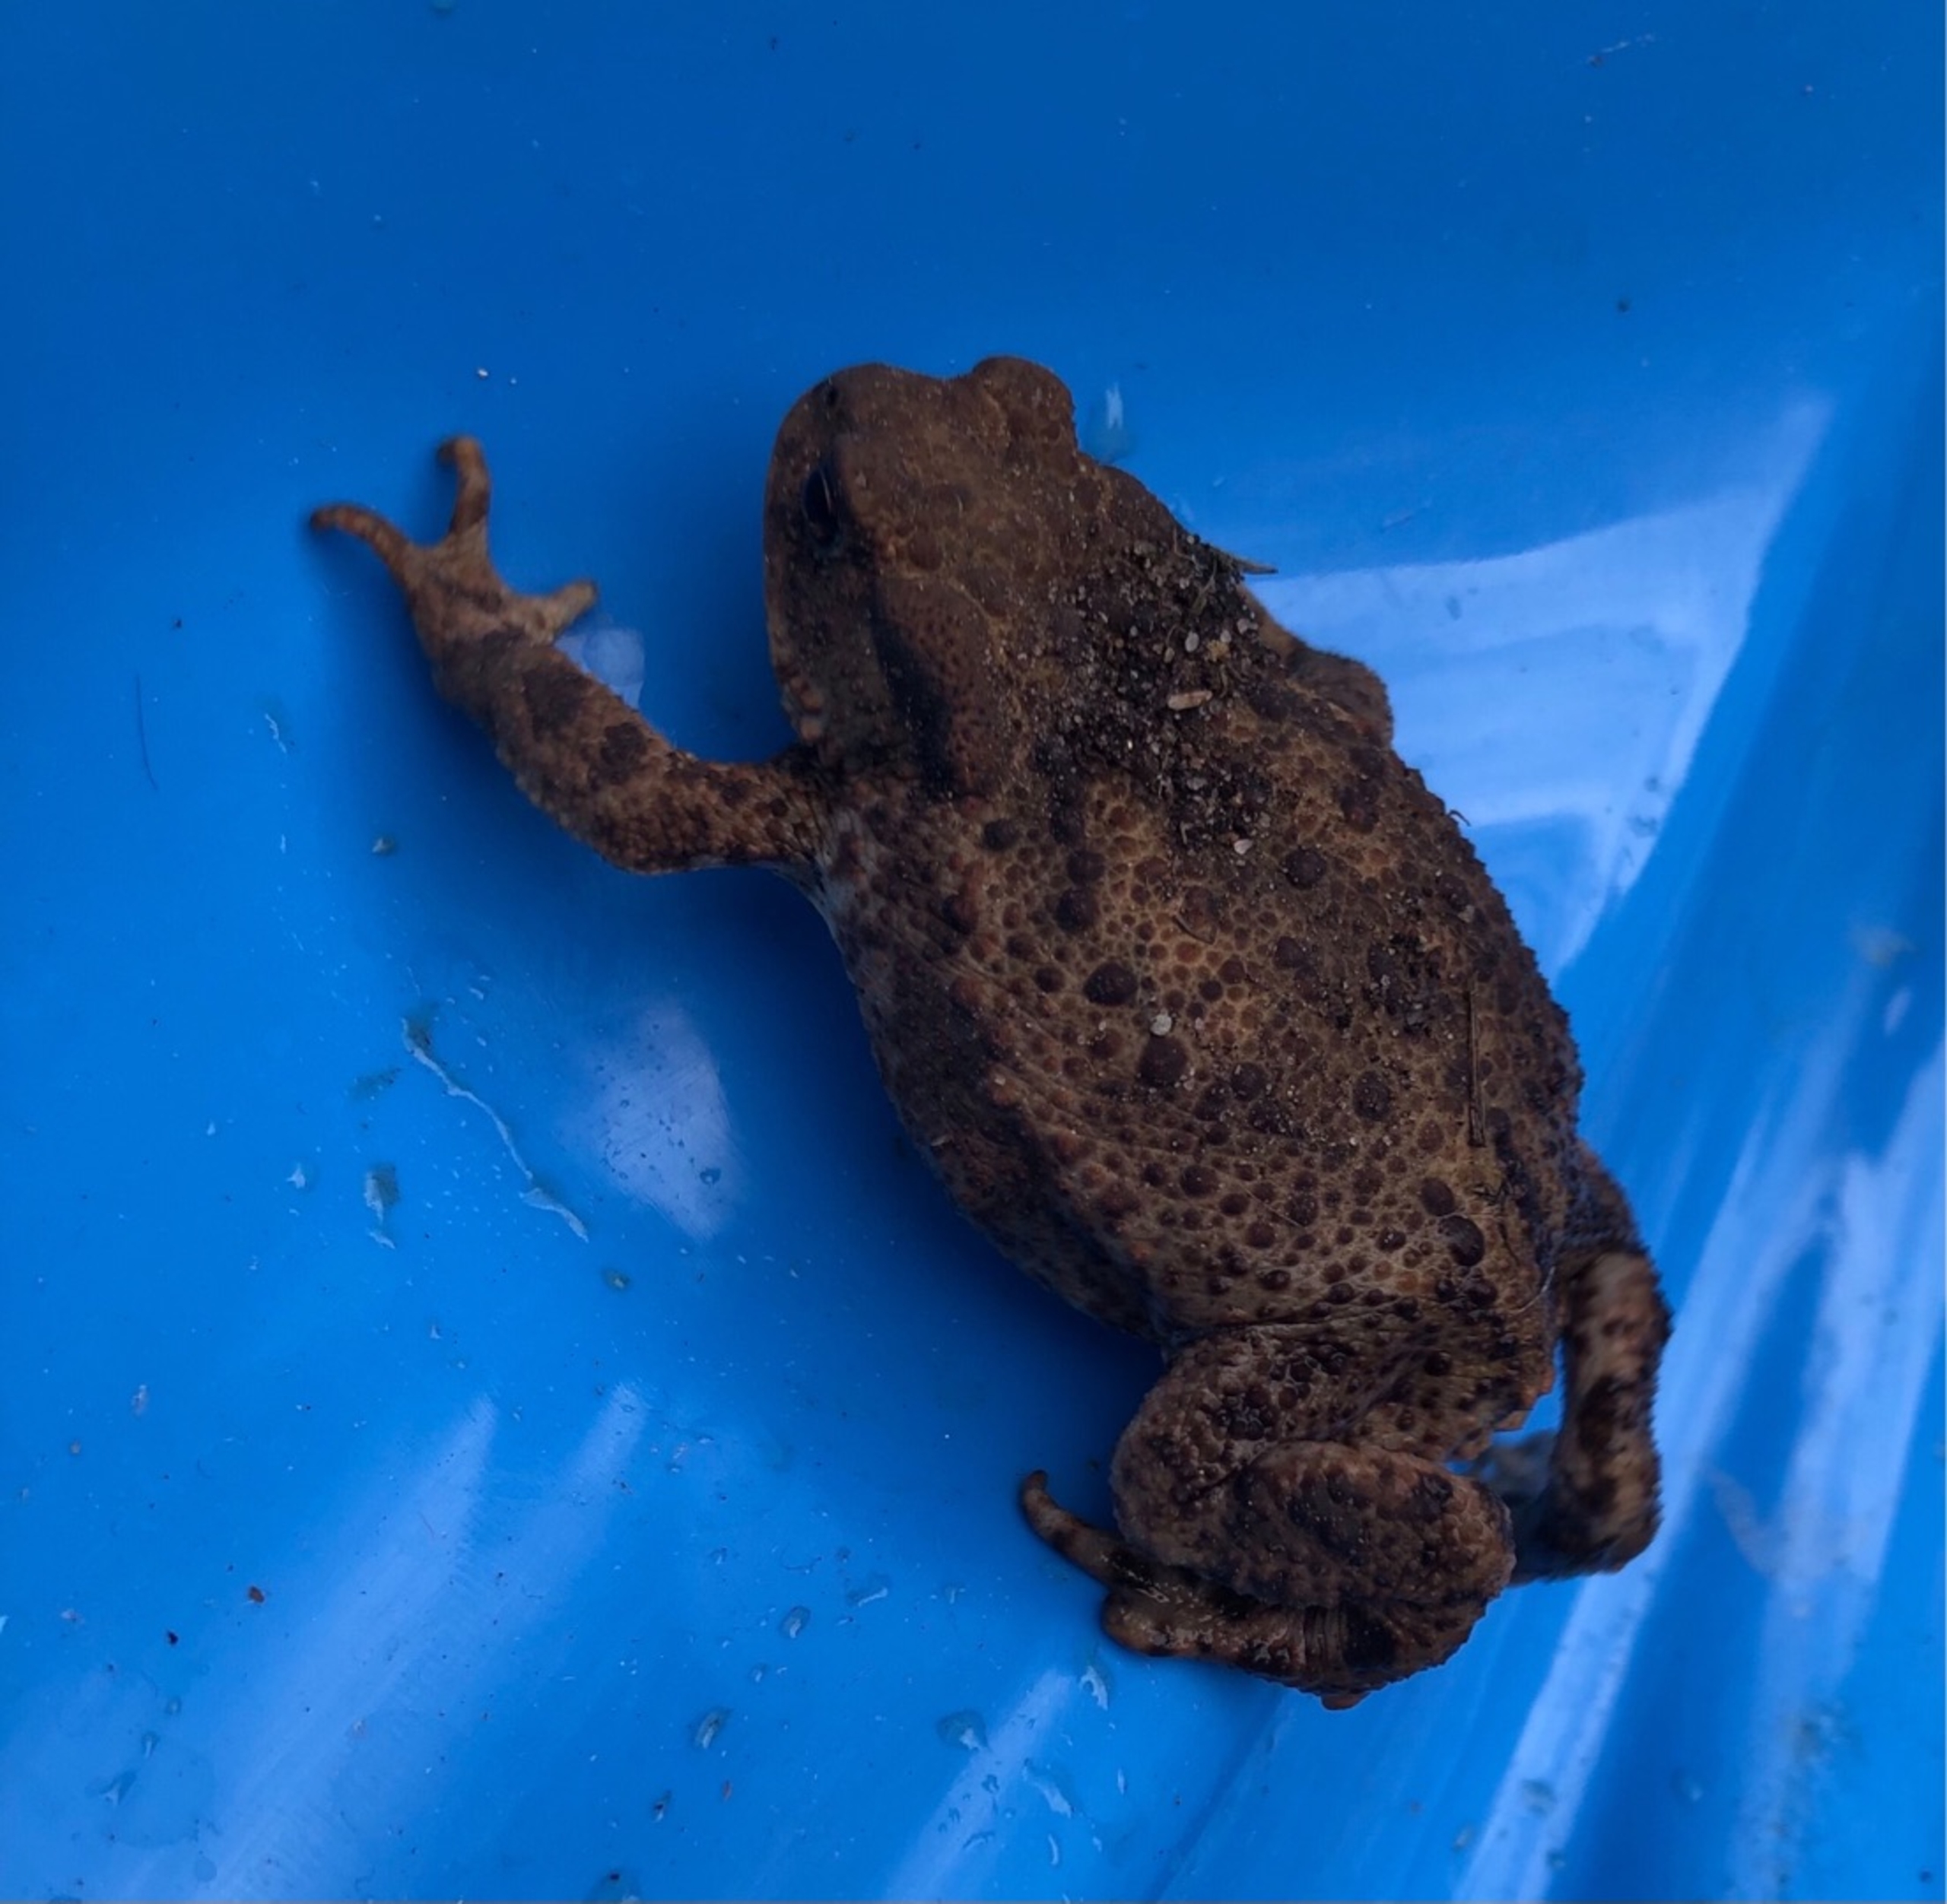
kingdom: Animalia
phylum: Chordata
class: Amphibia
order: Anura
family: Bufonidae
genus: Bufo
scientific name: Bufo bufo
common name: Skrubtudse
